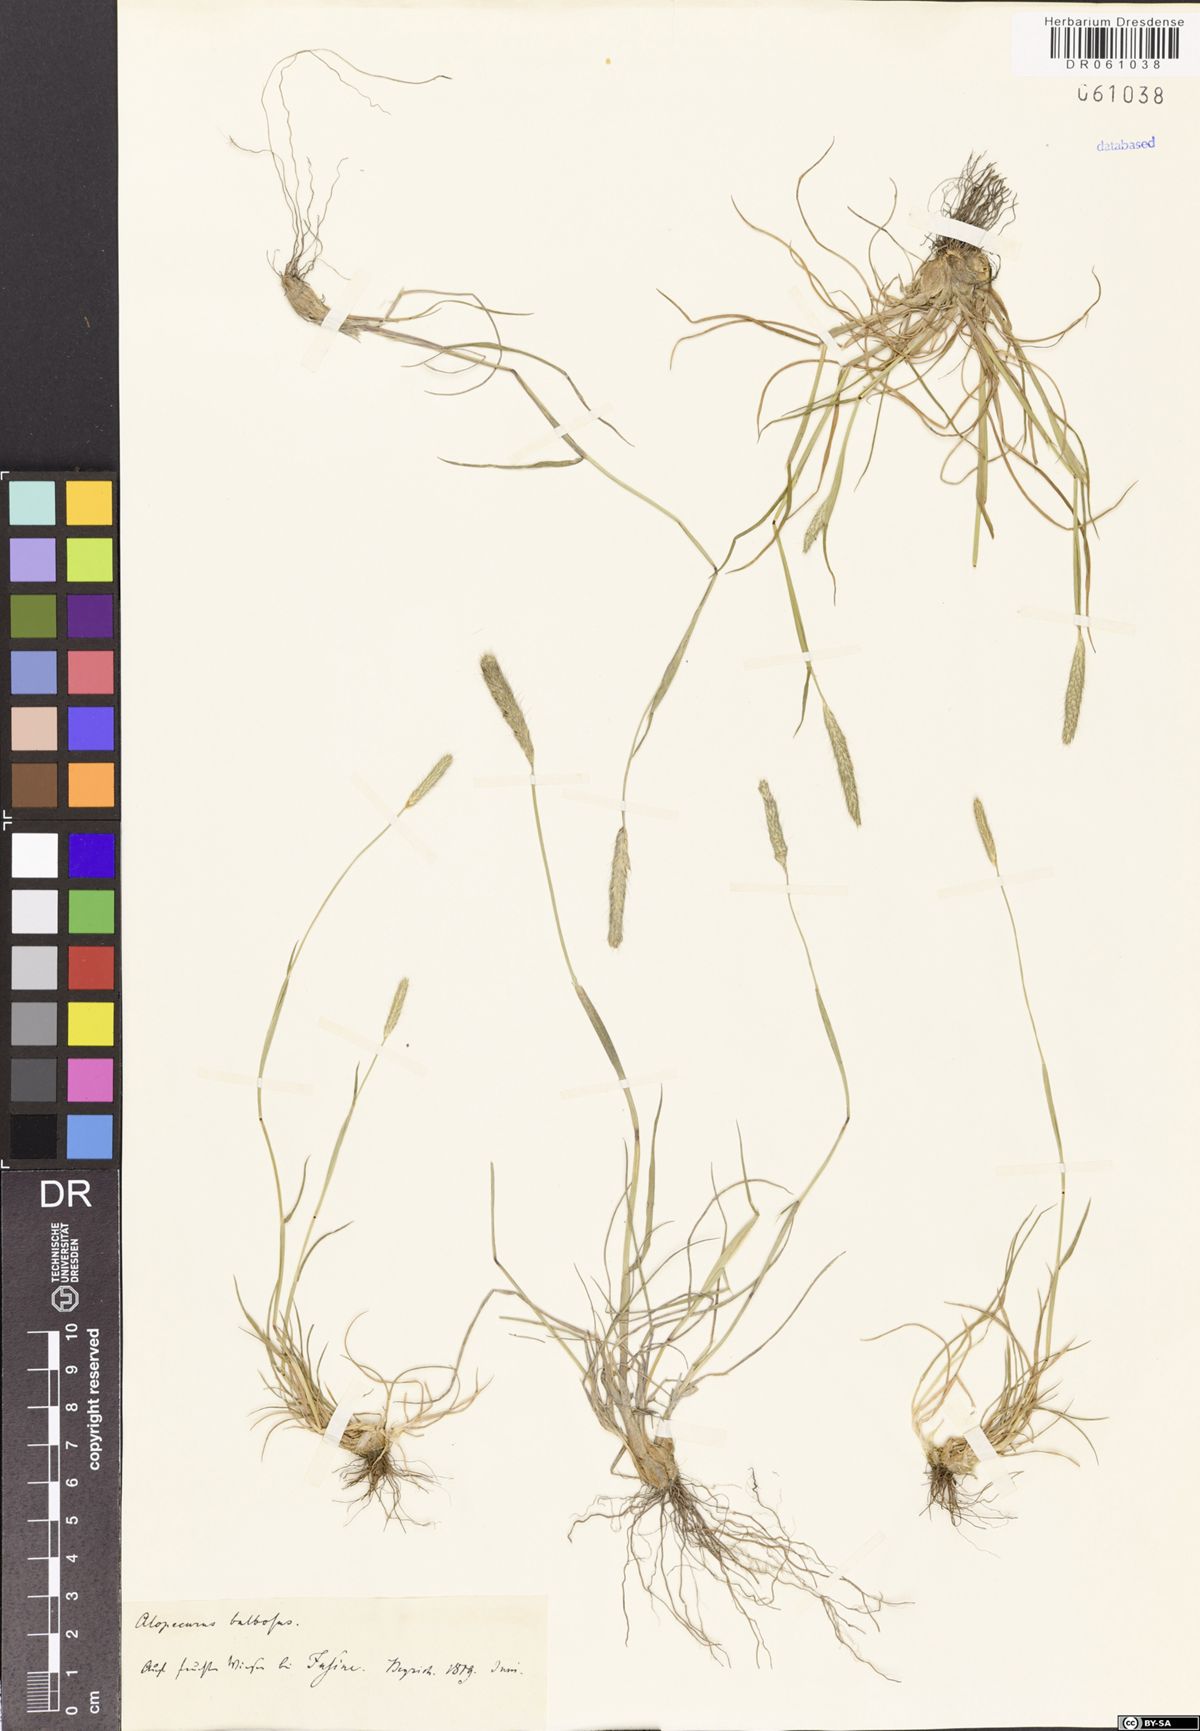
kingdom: Plantae
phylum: Tracheophyta
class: Liliopsida
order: Poales
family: Poaceae
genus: Alopecurus
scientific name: Alopecurus bulbosus
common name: Bulbous foxtail
